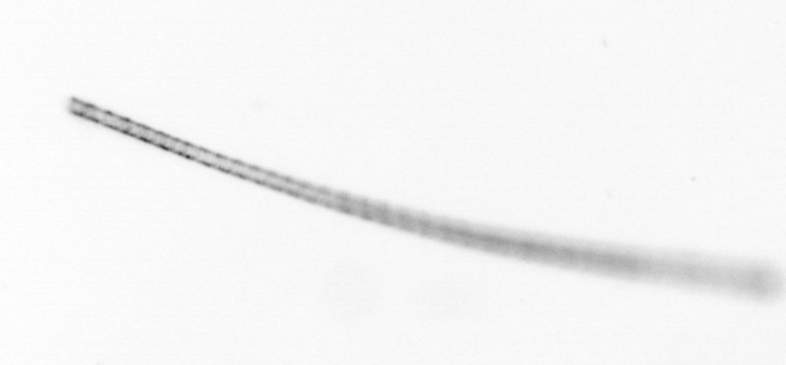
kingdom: Chromista
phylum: Ochrophyta
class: Bacillariophyceae
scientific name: Bacillariophyceae
